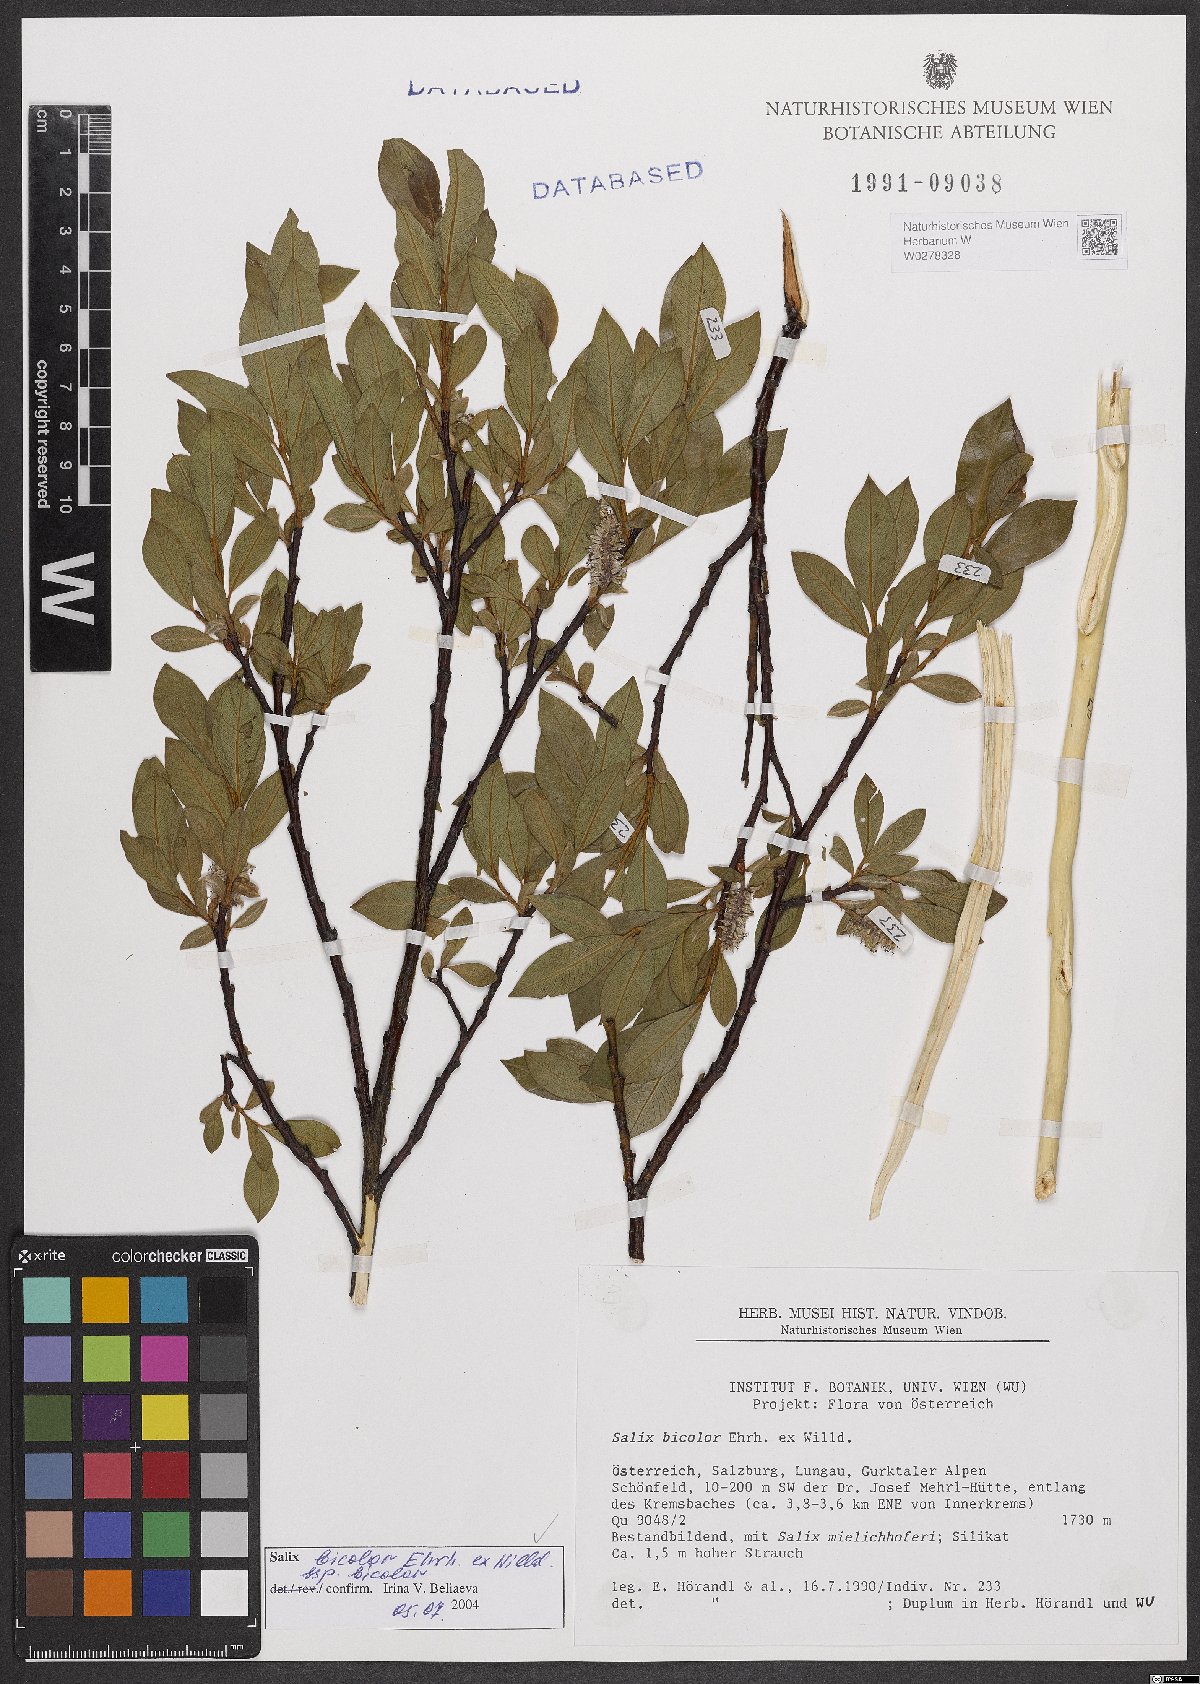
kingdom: Plantae
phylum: Tracheophyta
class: Magnoliopsida
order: Malpighiales
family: Salicaceae
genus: Salix
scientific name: Salix bicolor
